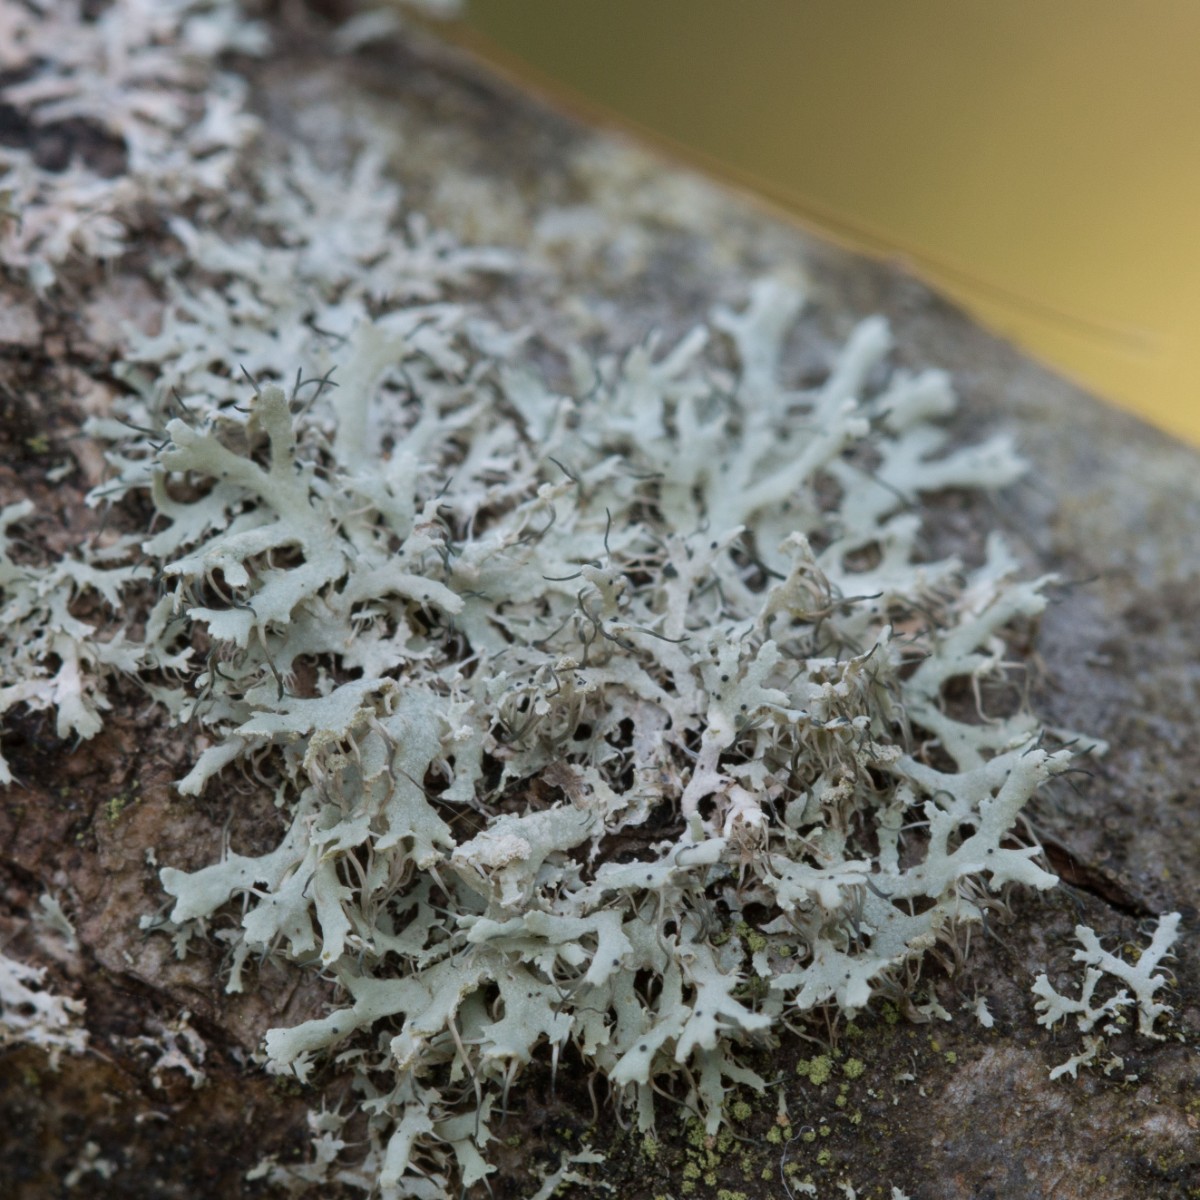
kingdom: Fungi
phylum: Ascomycota
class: Lecanoromycetes
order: Caliciales
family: Physciaceae
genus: Physcia
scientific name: Physcia tenella
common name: spæd rosetlav
